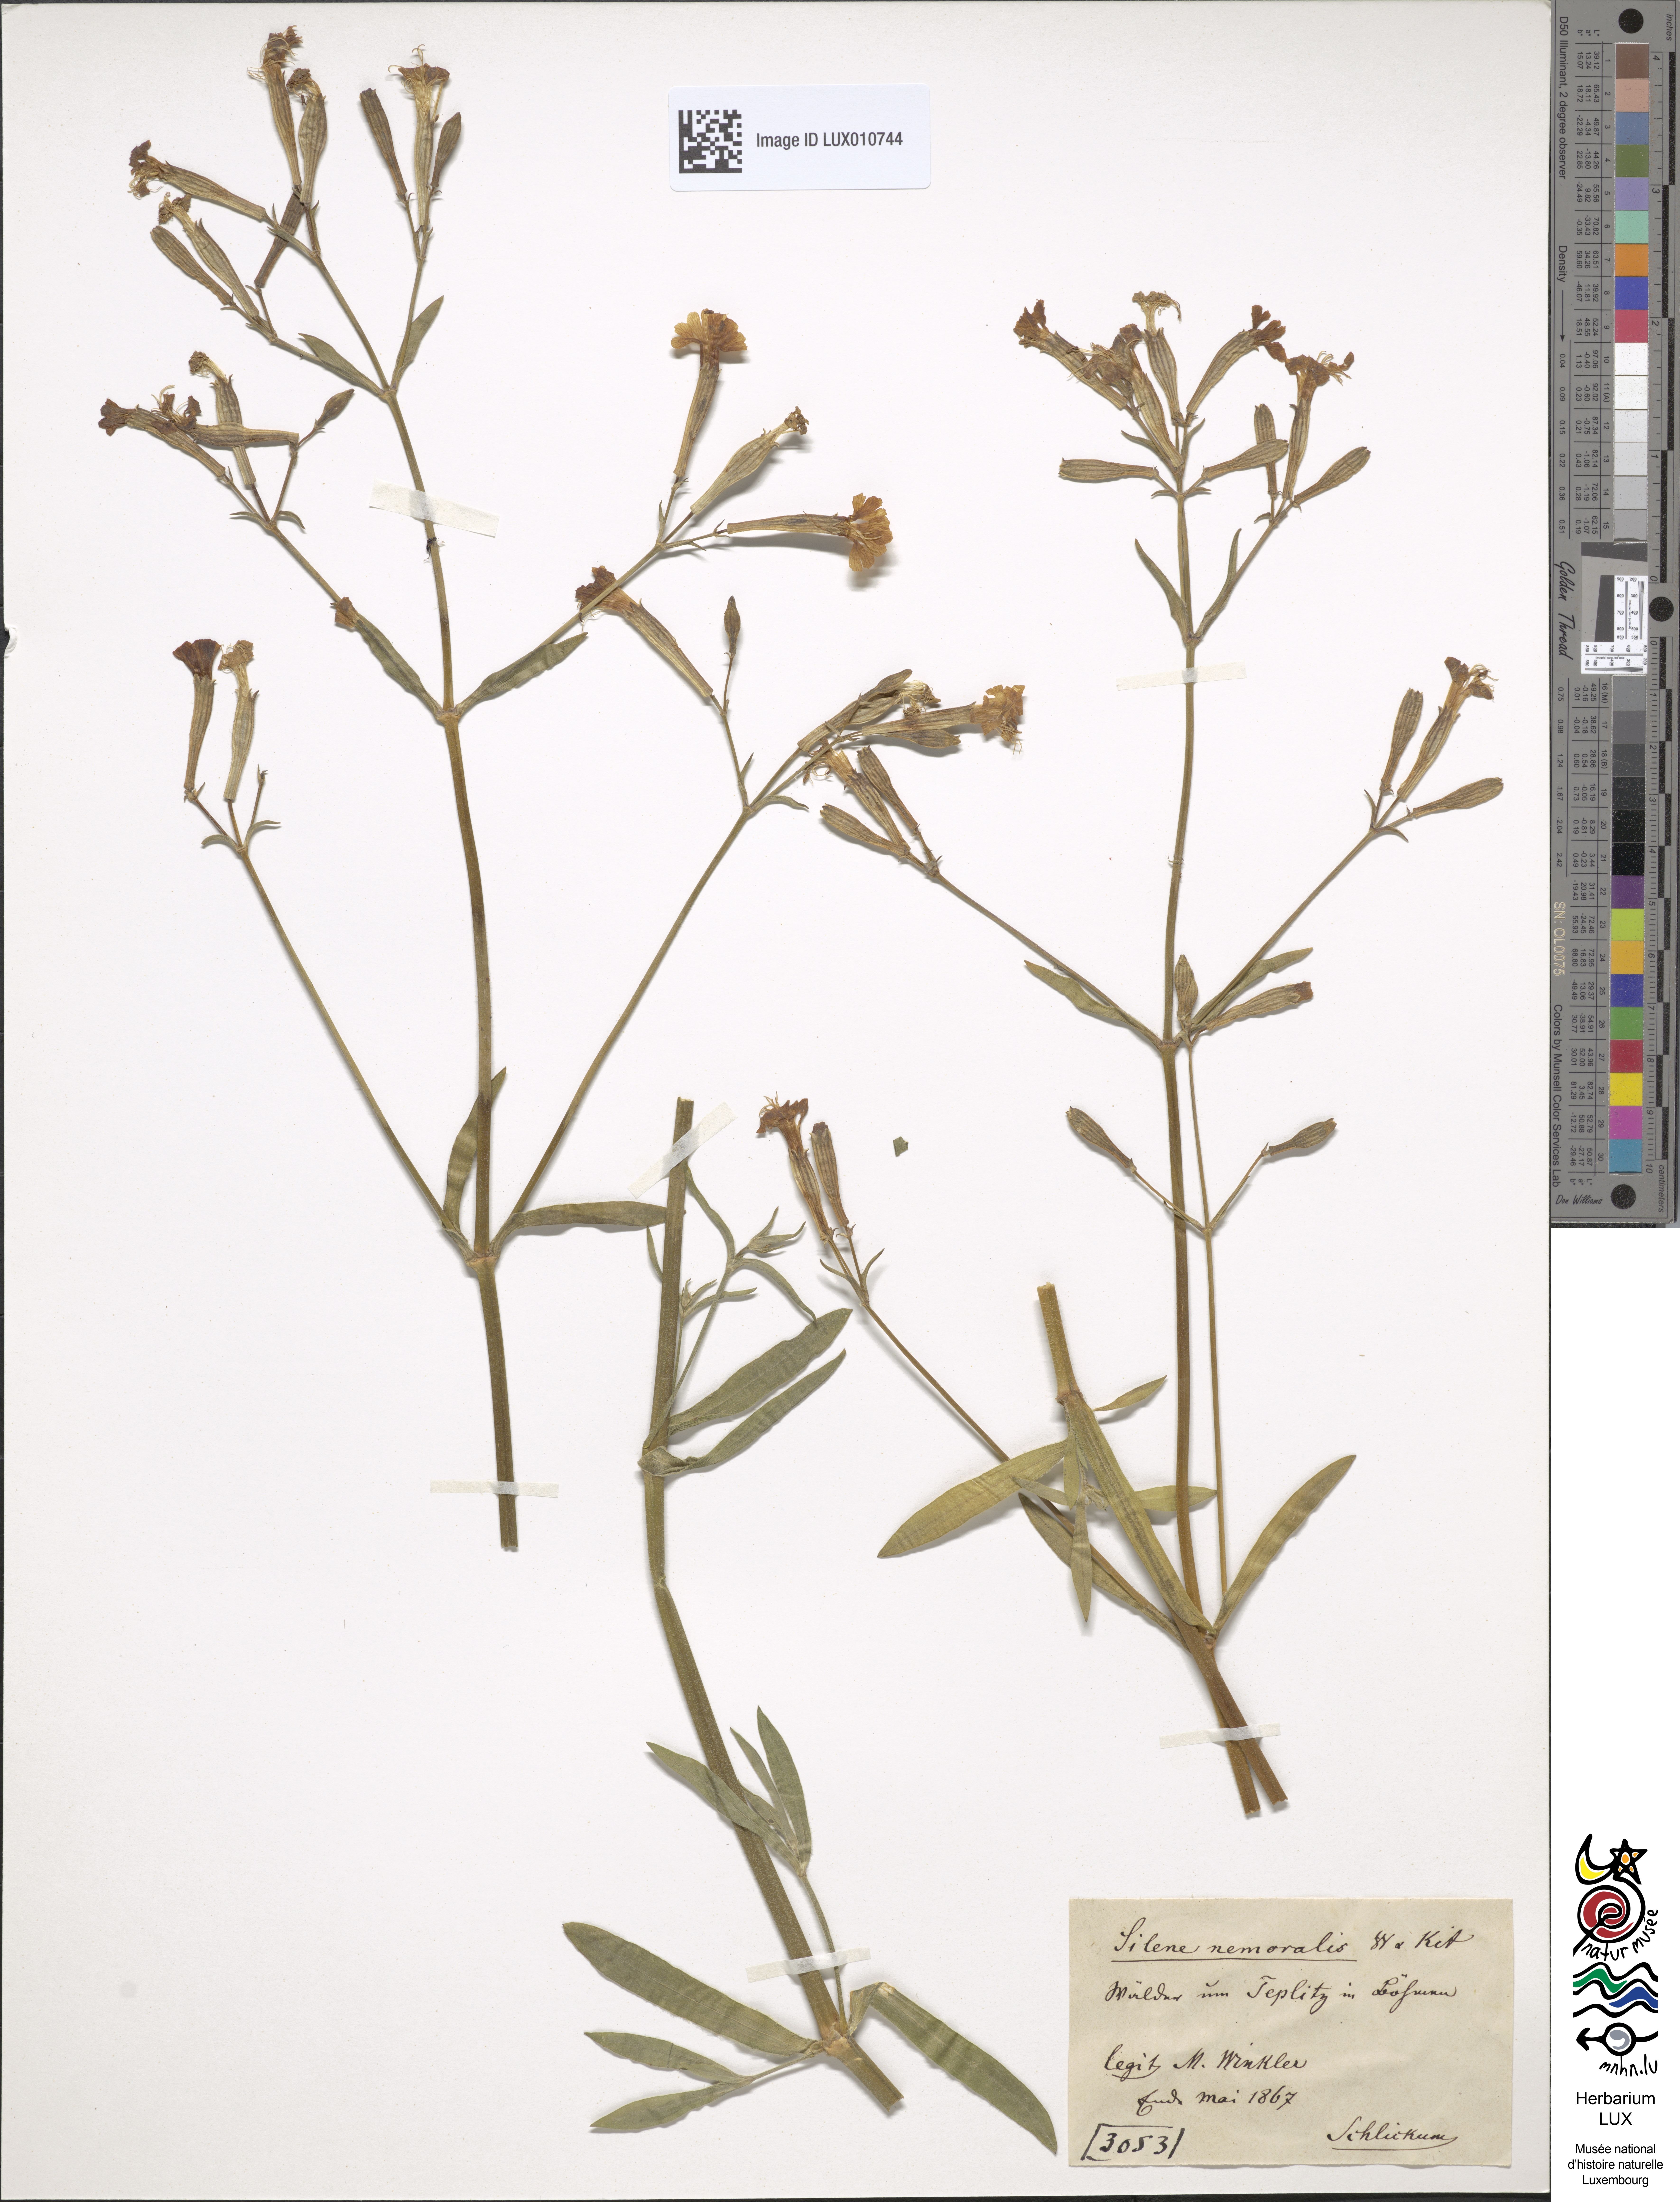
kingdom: Plantae
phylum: Tracheophyta
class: Magnoliopsida
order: Caryophyllales
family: Caryophyllaceae
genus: Silene
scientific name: Silene nemoralis
